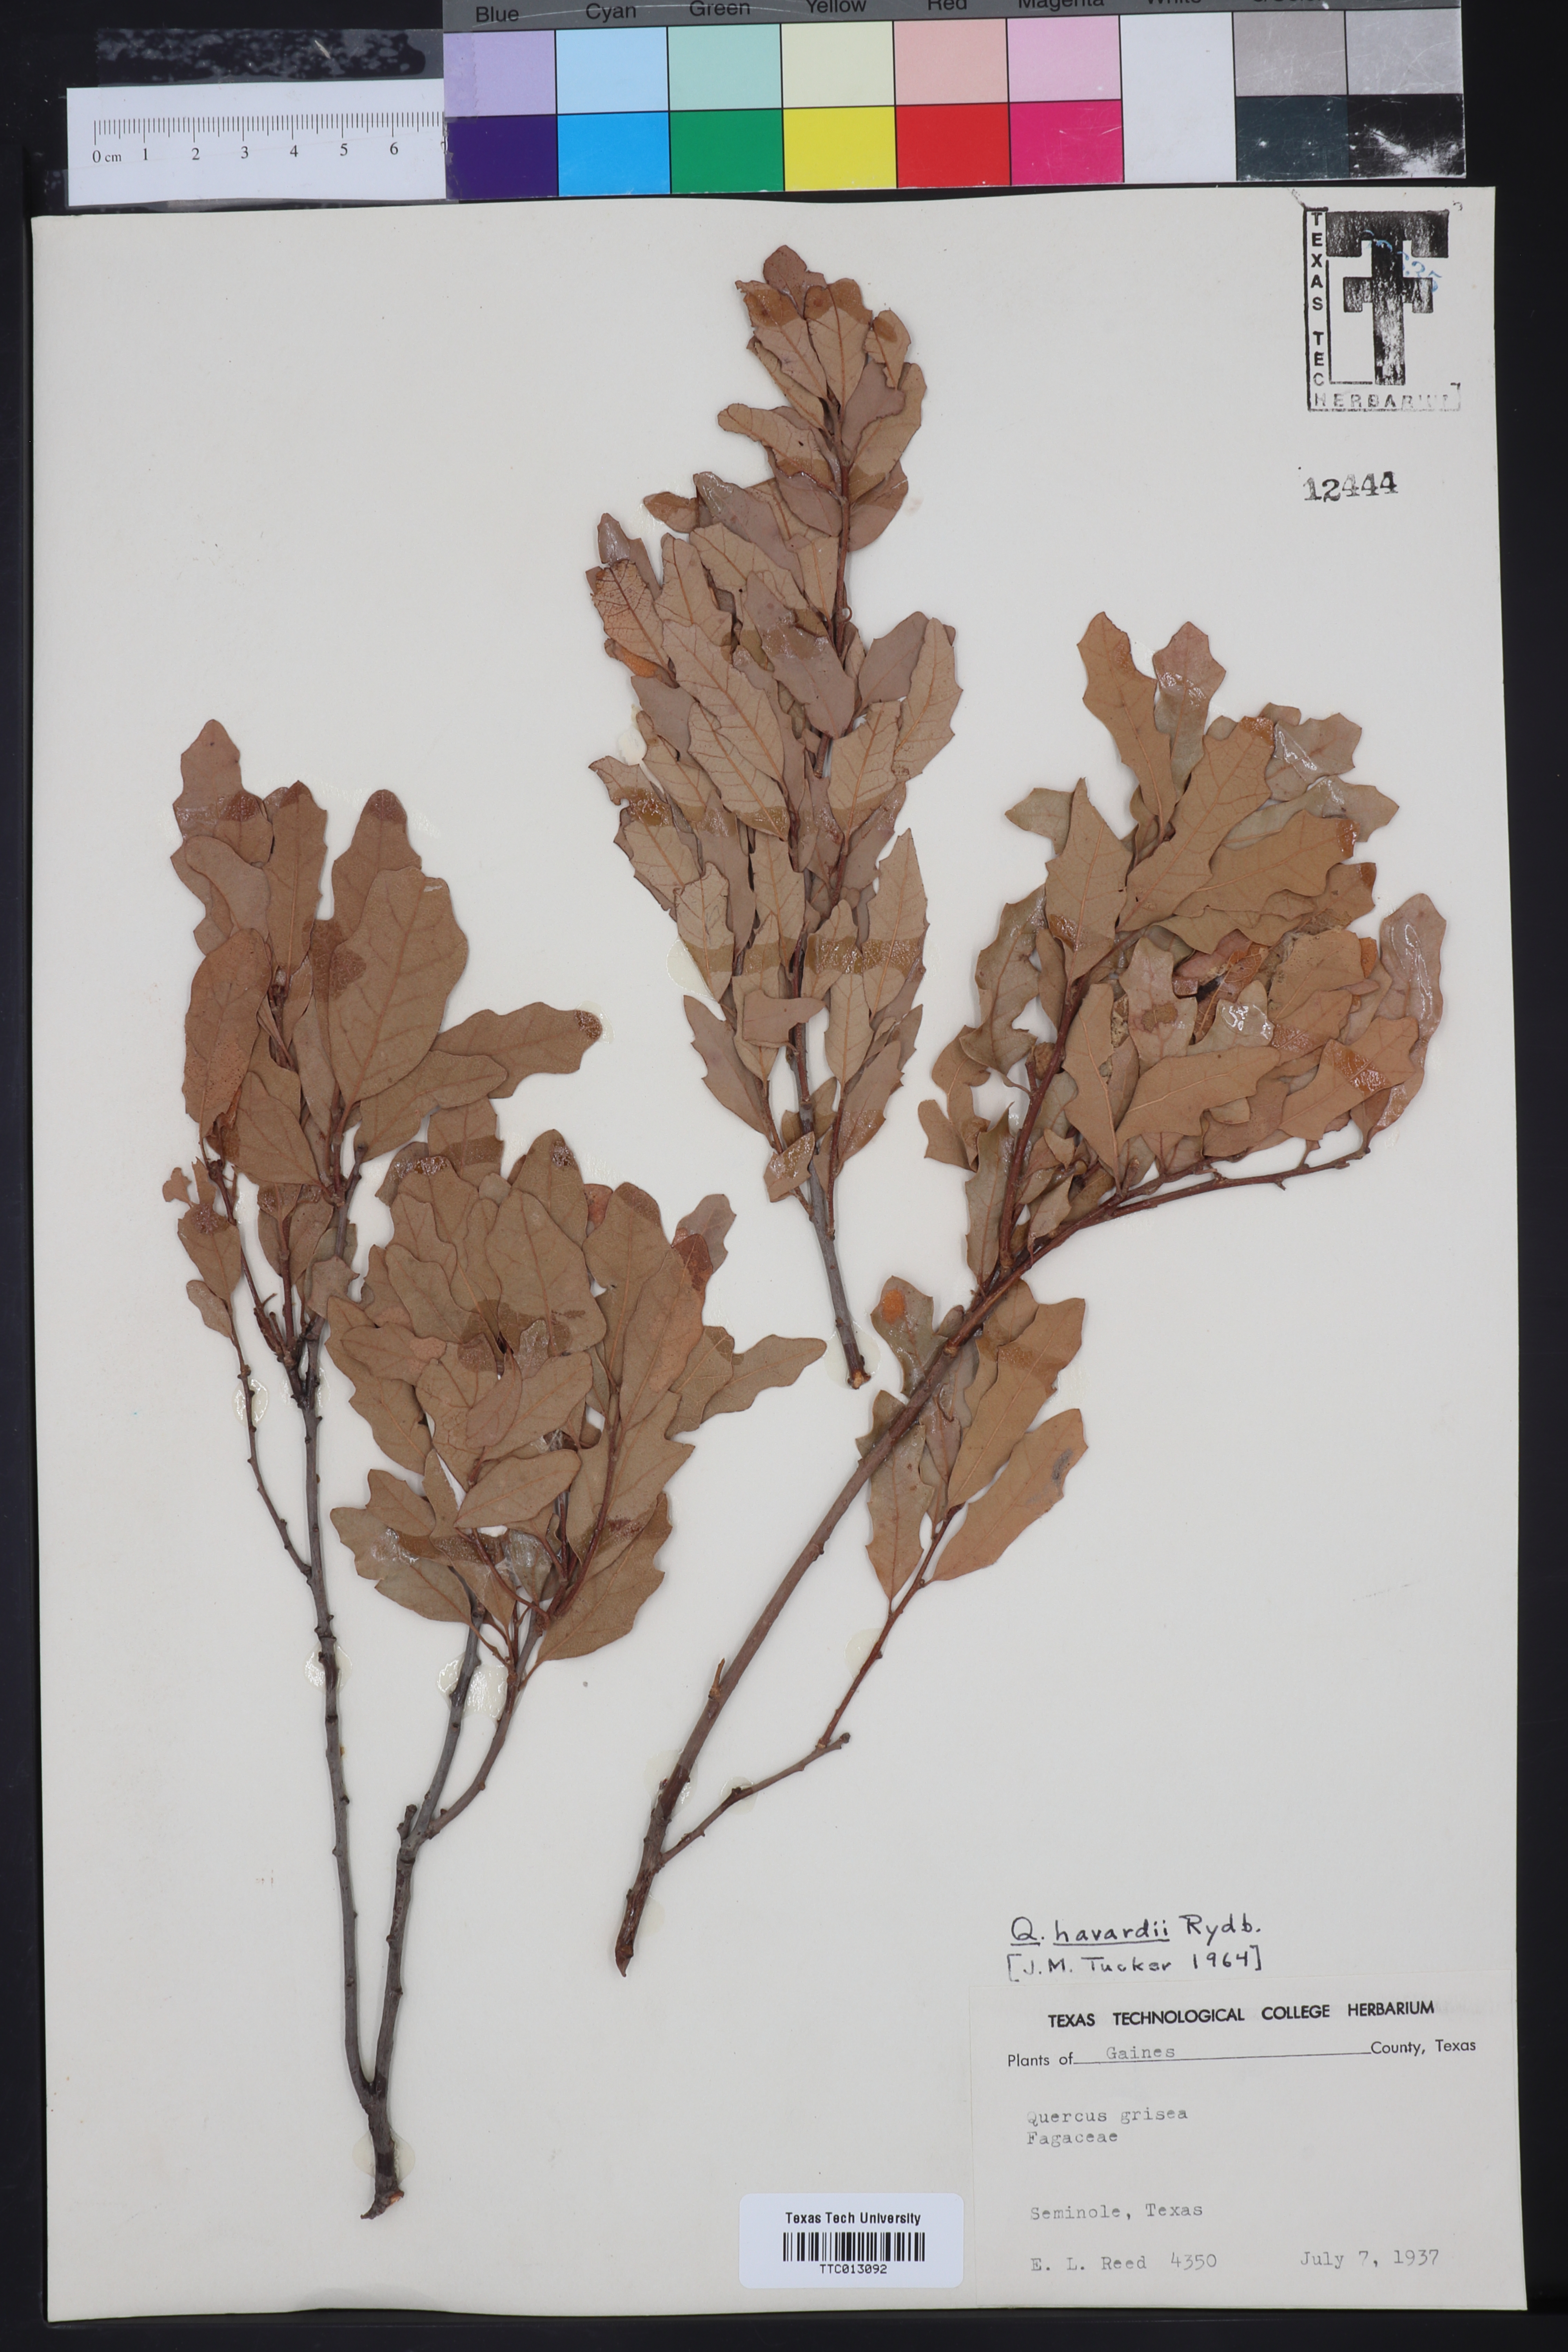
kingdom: Plantae
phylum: Tracheophyta
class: Magnoliopsida
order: Fagales
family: Fagaceae
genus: Quercus
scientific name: Quercus havardii
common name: Shinnery oak
